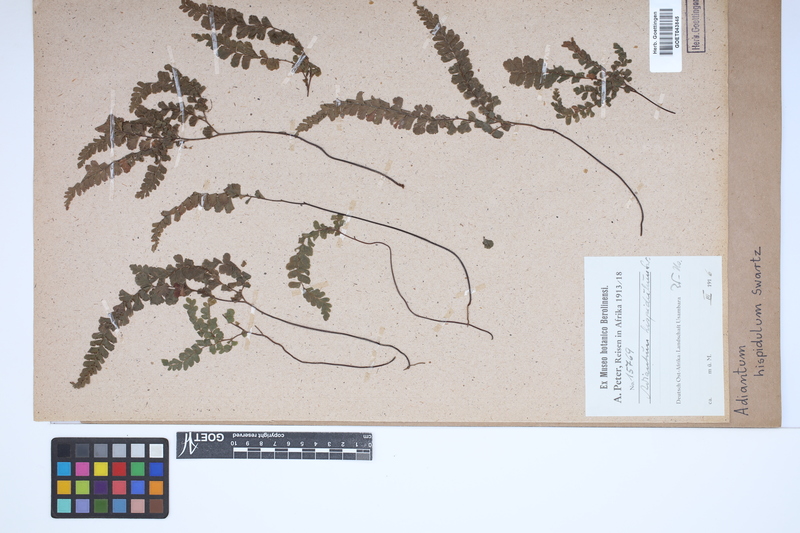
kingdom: Plantae
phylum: Tracheophyta
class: Polypodiopsida
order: Polypodiales
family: Pteridaceae
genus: Adiantum
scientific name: Adiantum hispidulum
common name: Rough maidenhair
